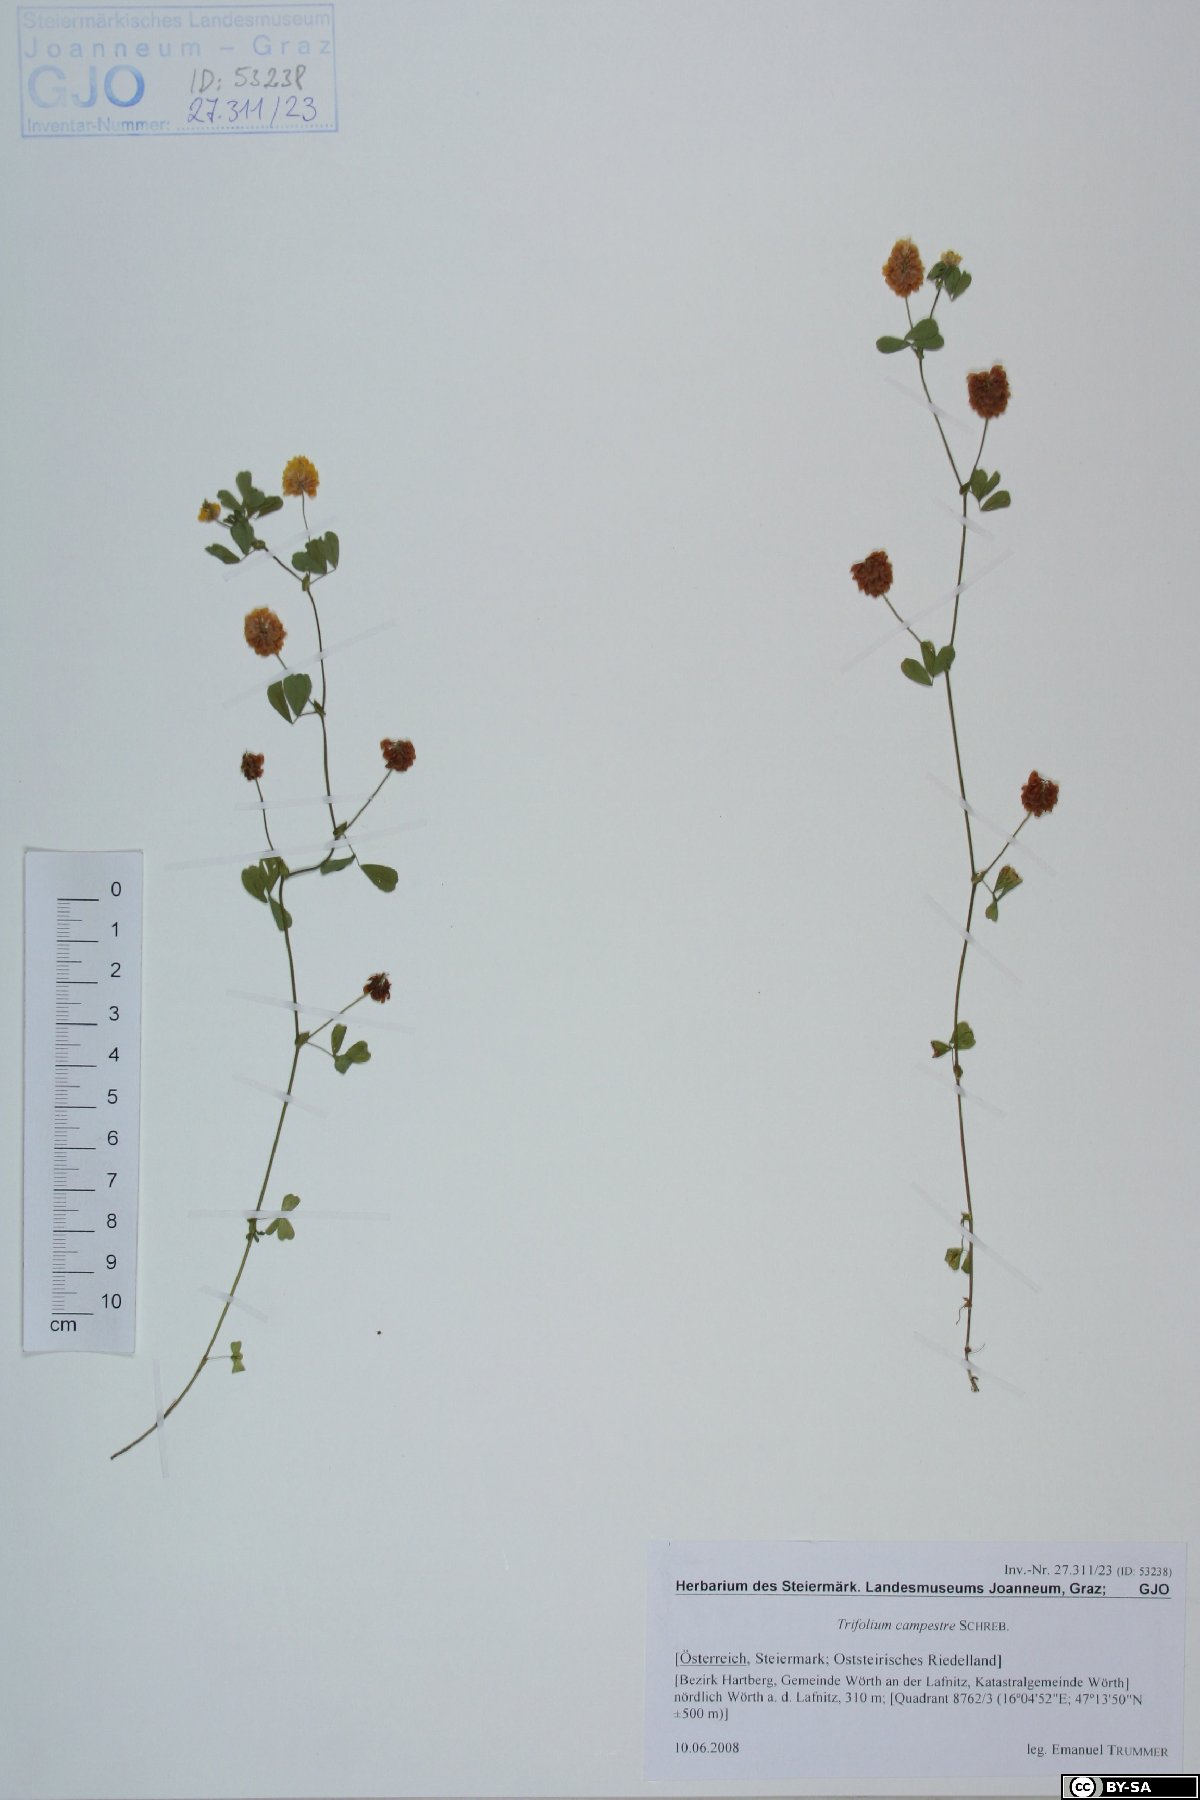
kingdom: Plantae
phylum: Tracheophyta
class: Magnoliopsida
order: Fabales
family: Fabaceae
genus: Trifolium
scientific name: Trifolium campestre
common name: Field clover
